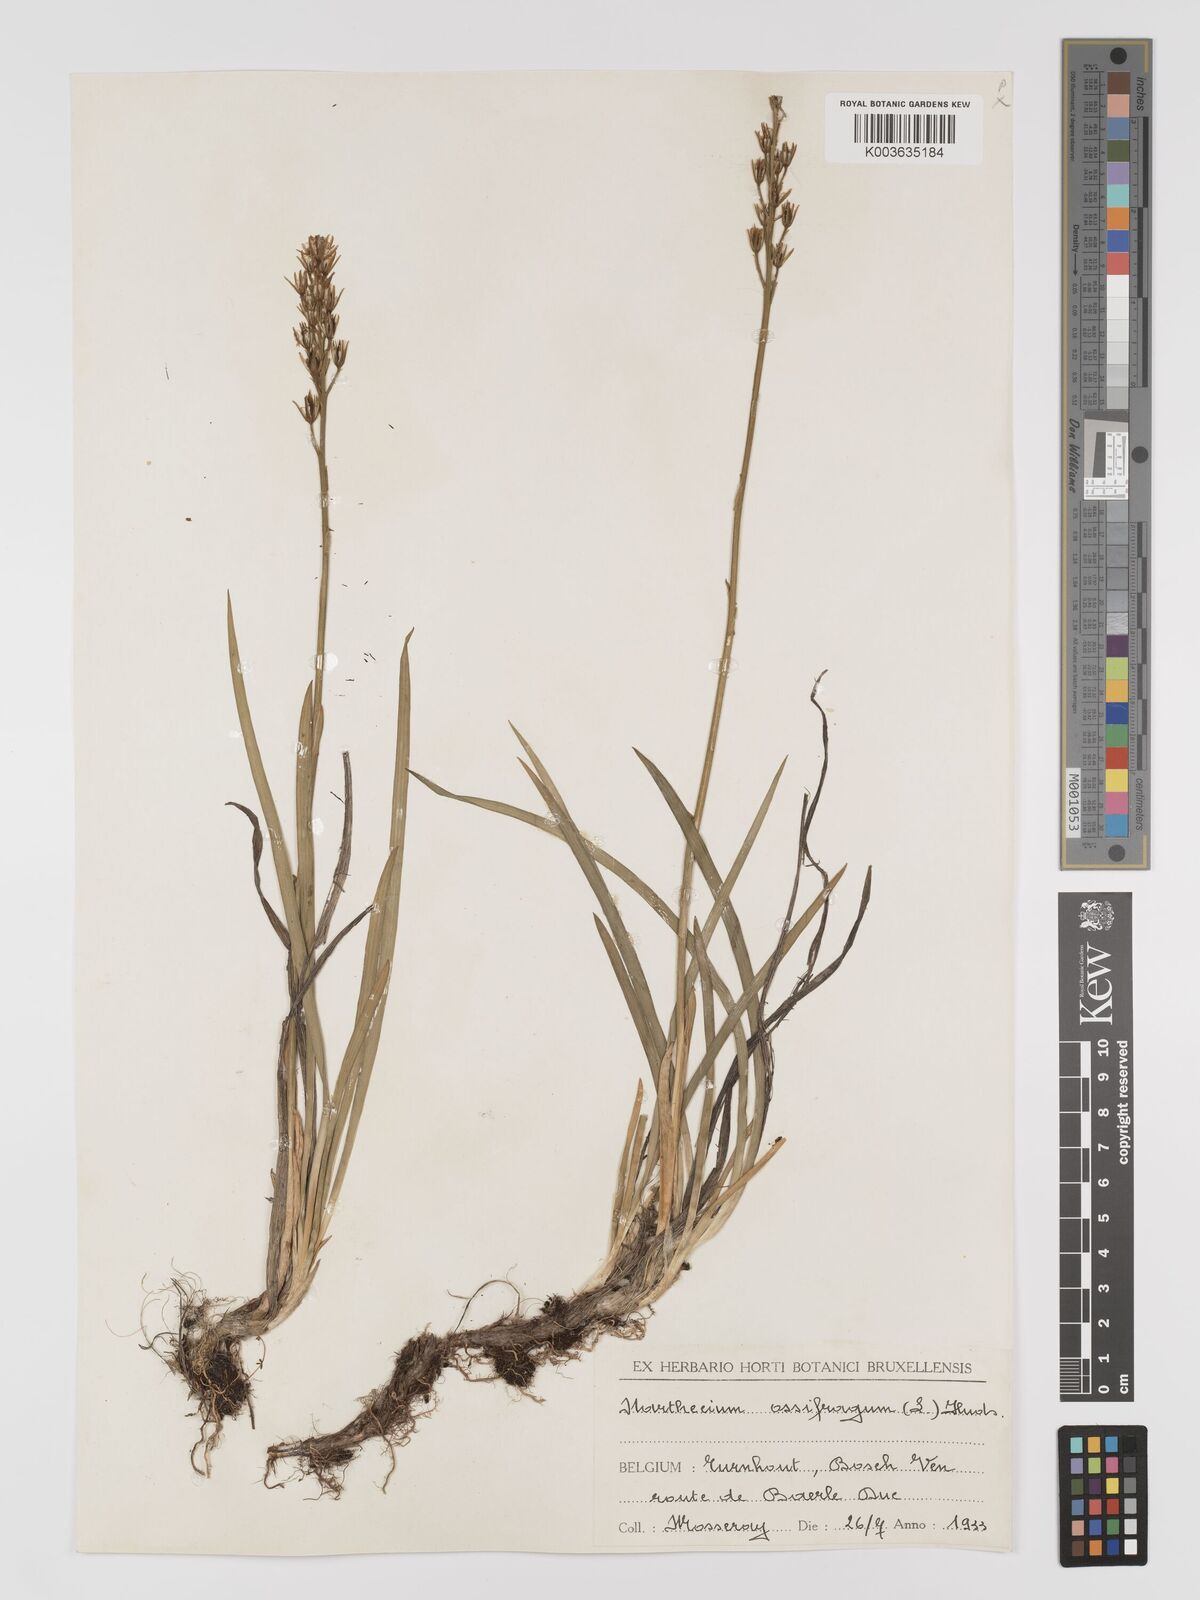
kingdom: Plantae
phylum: Tracheophyta
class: Liliopsida
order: Dioscoreales
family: Nartheciaceae
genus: Narthecium
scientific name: Narthecium ossifragum
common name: Bog asphodel
